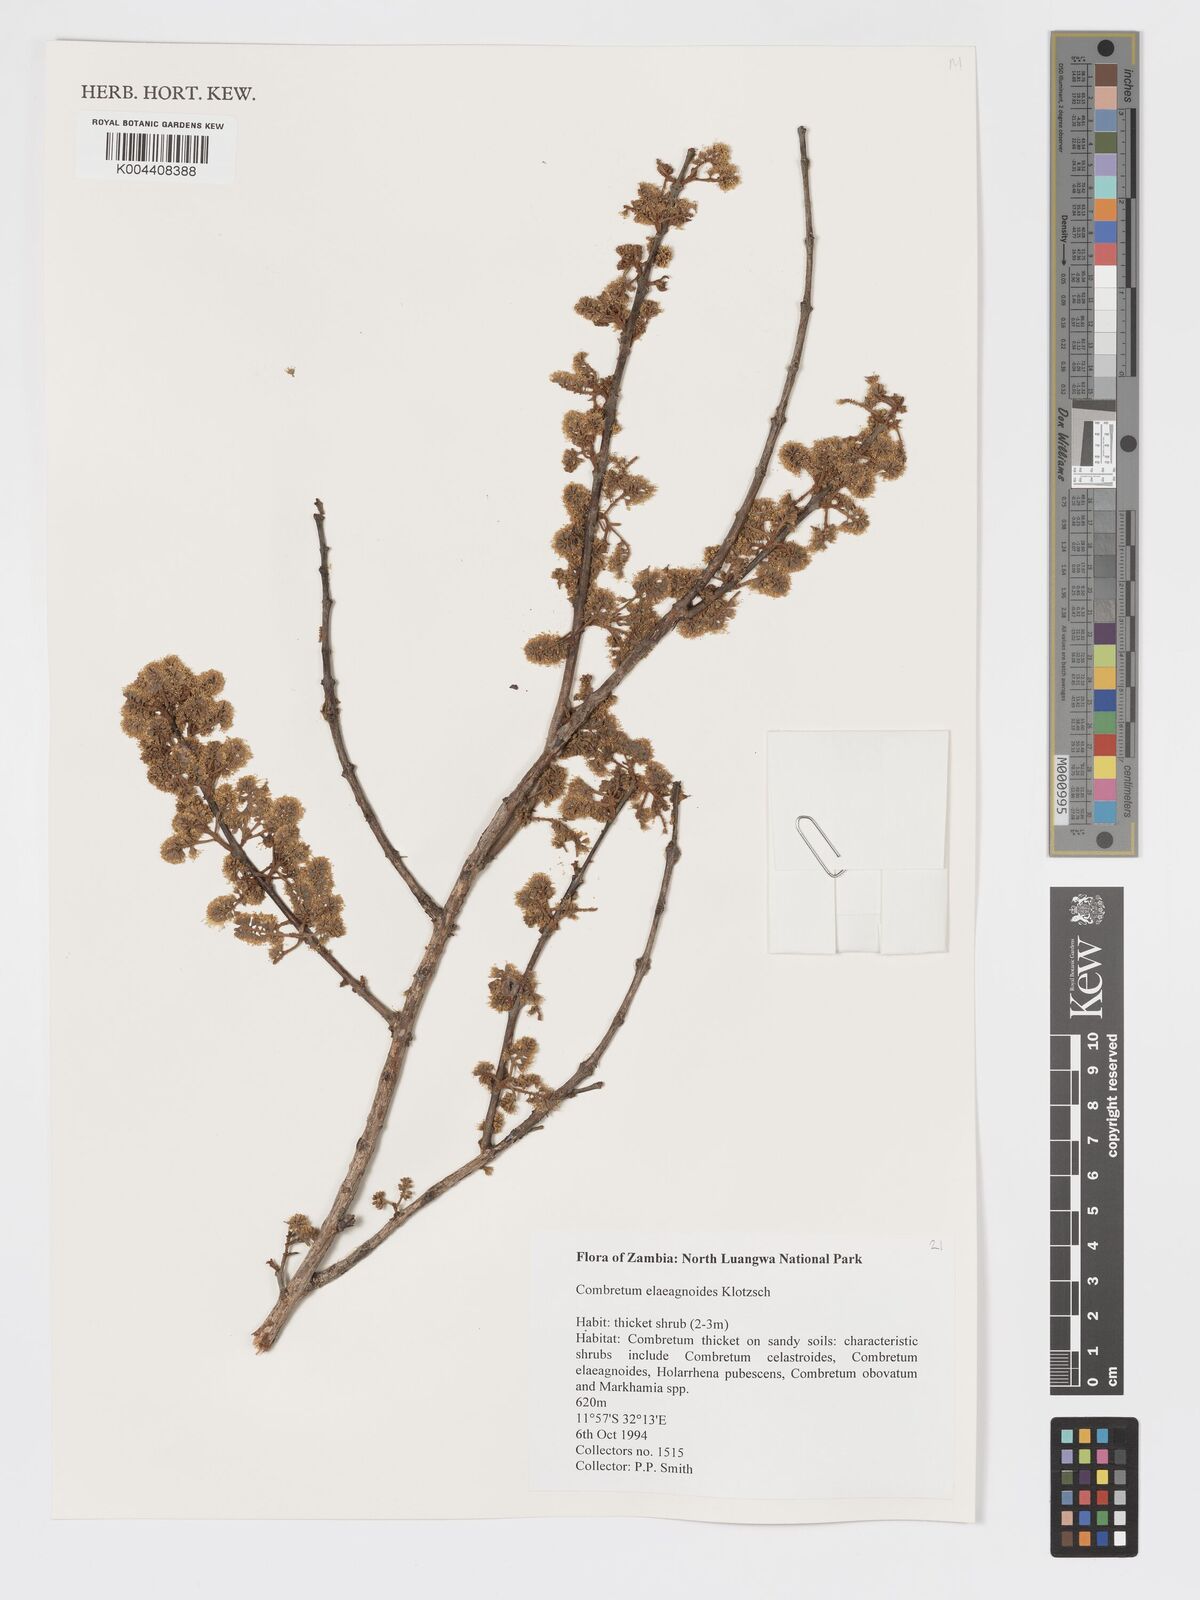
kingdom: Plantae
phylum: Tracheophyta
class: Magnoliopsida
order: Myrtales
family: Combretaceae
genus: Combretum
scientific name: Combretum elaeagnoides
